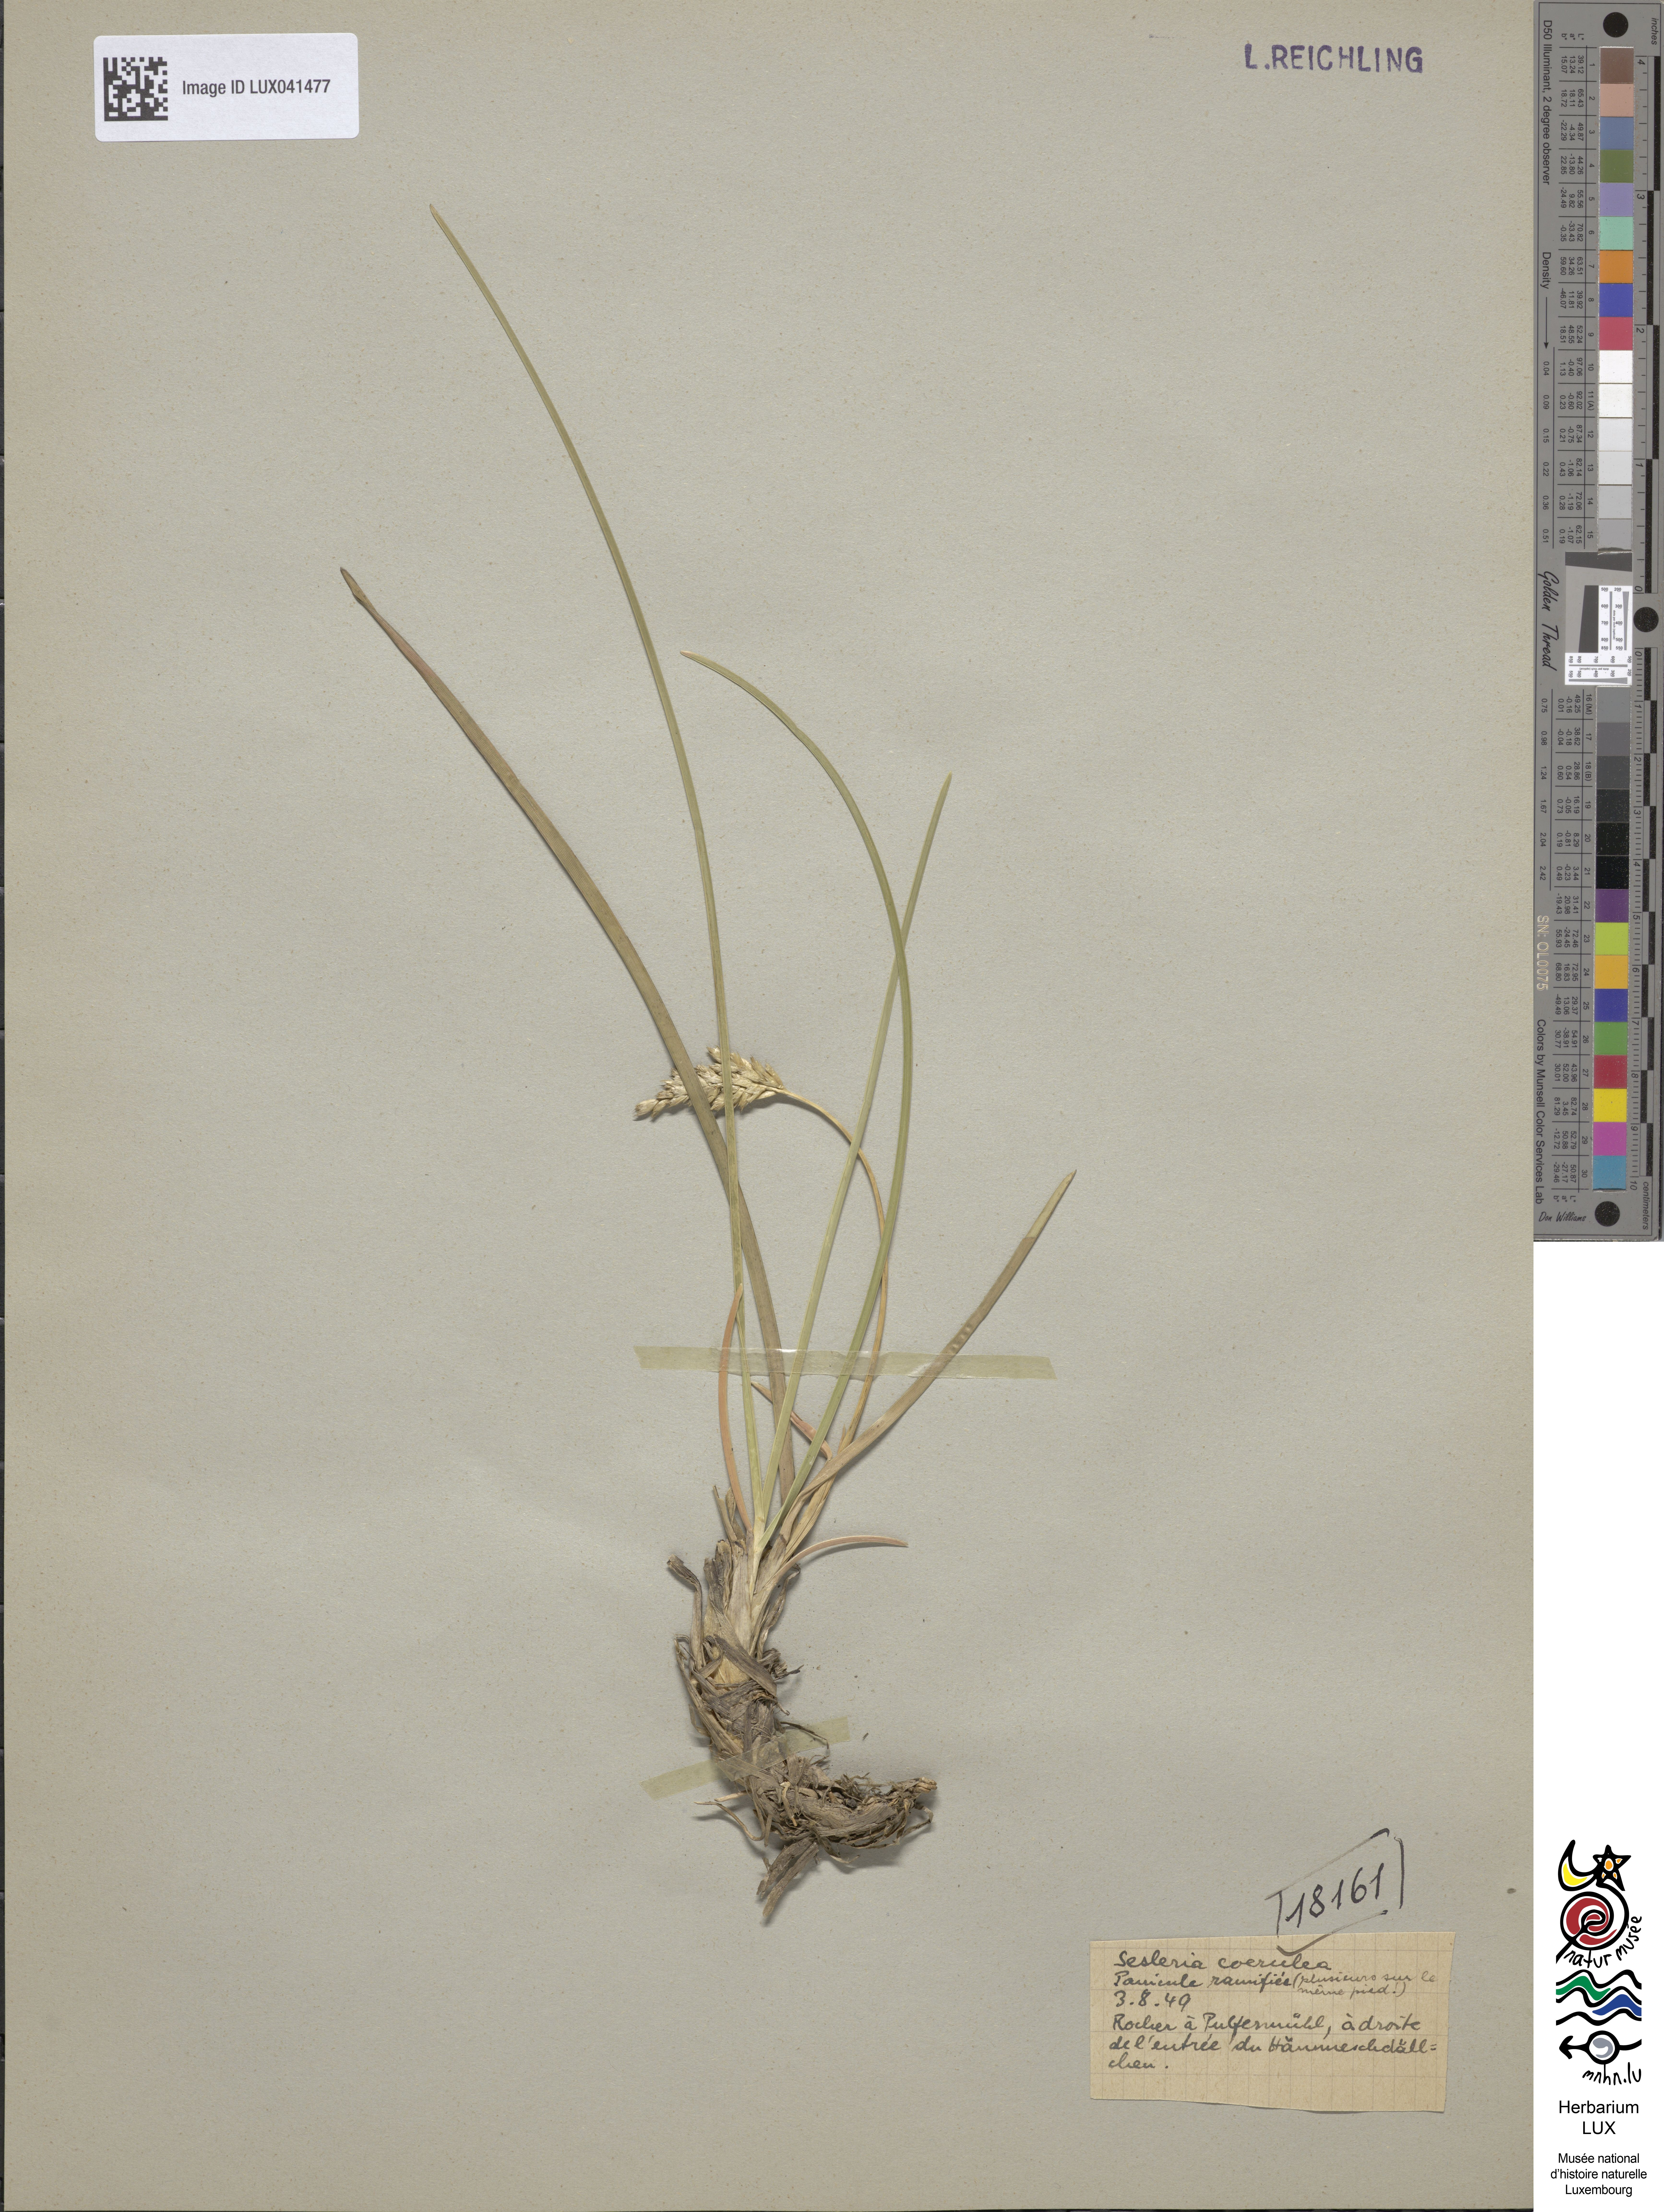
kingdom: Plantae
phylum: Tracheophyta
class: Liliopsida
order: Poales
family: Poaceae
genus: Sesleria
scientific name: Sesleria albicans
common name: Blue moor-grass
